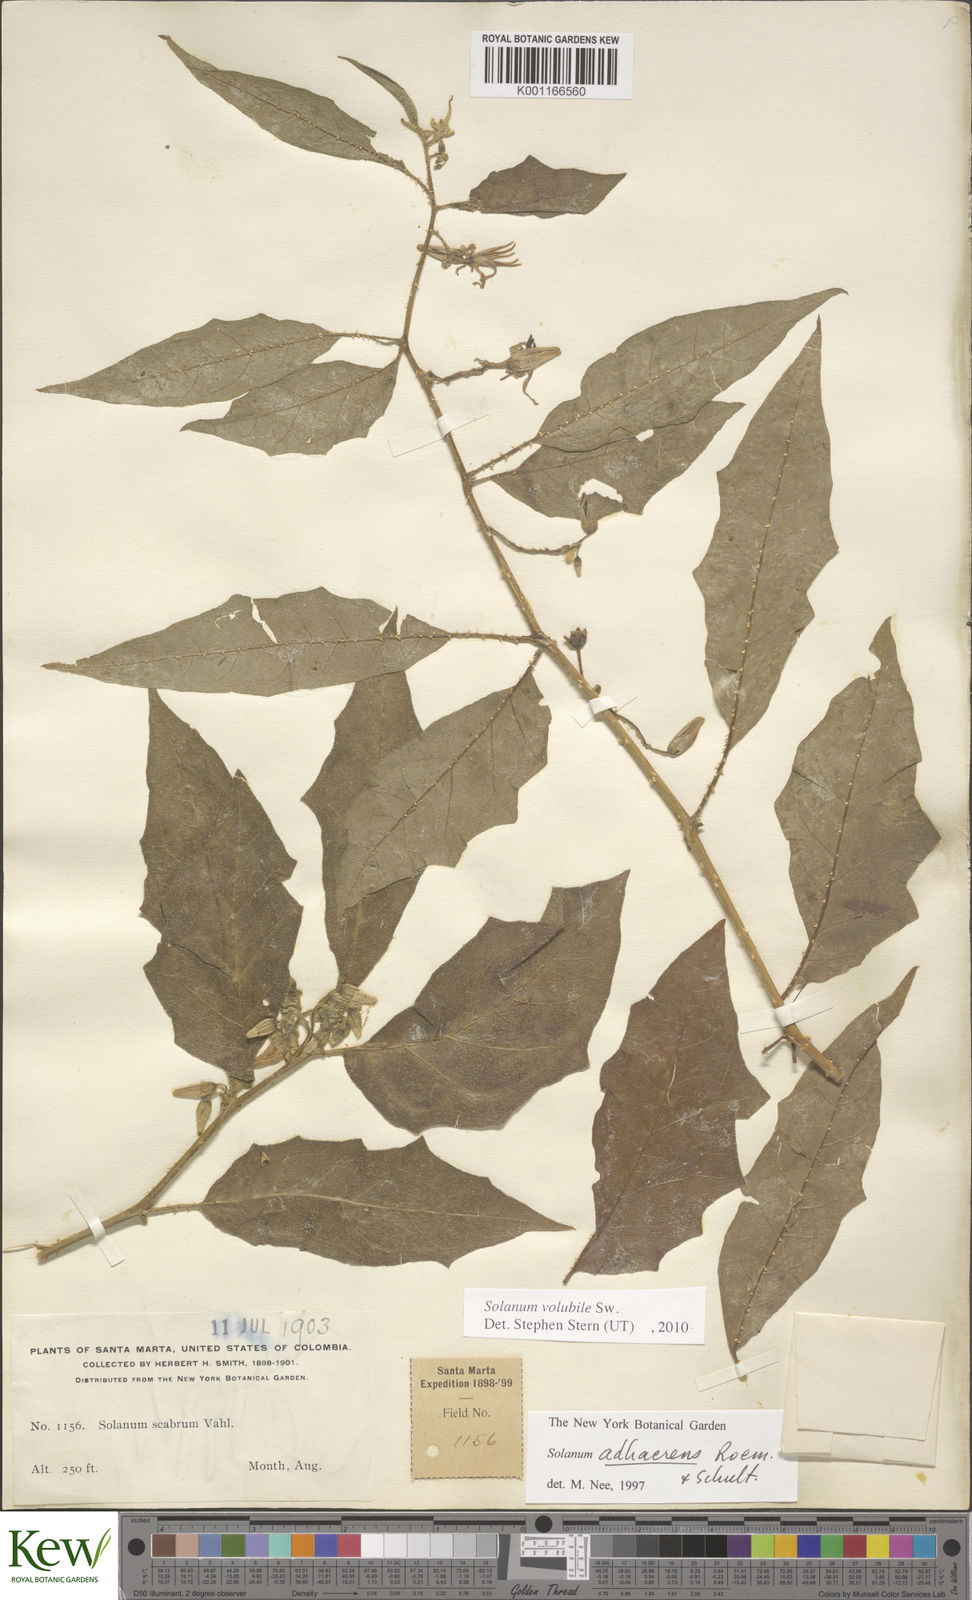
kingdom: Plantae
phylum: Tracheophyta
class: Magnoliopsida
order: Solanales
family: Solanaceae
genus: Solanum
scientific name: Solanum volubile
